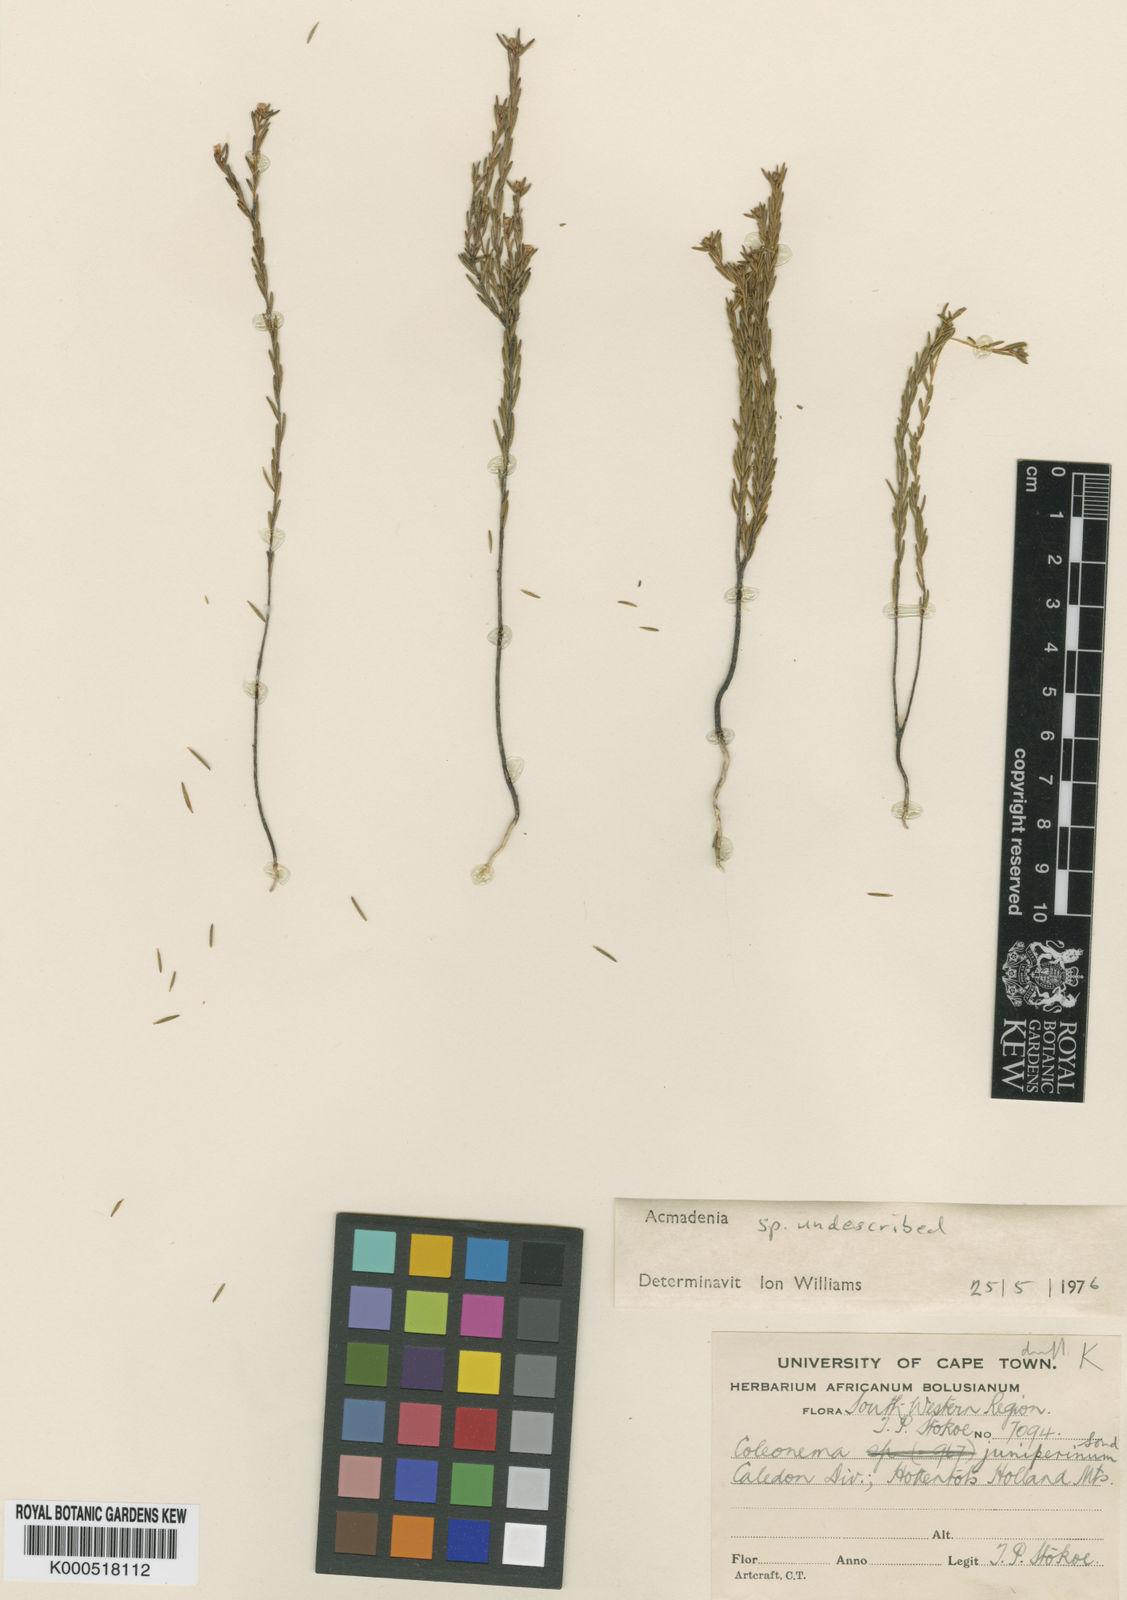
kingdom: Plantae
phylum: Tracheophyta
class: Magnoliopsida
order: Sapindales
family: Rutaceae
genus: Acmadenia
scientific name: Acmadenia candida
